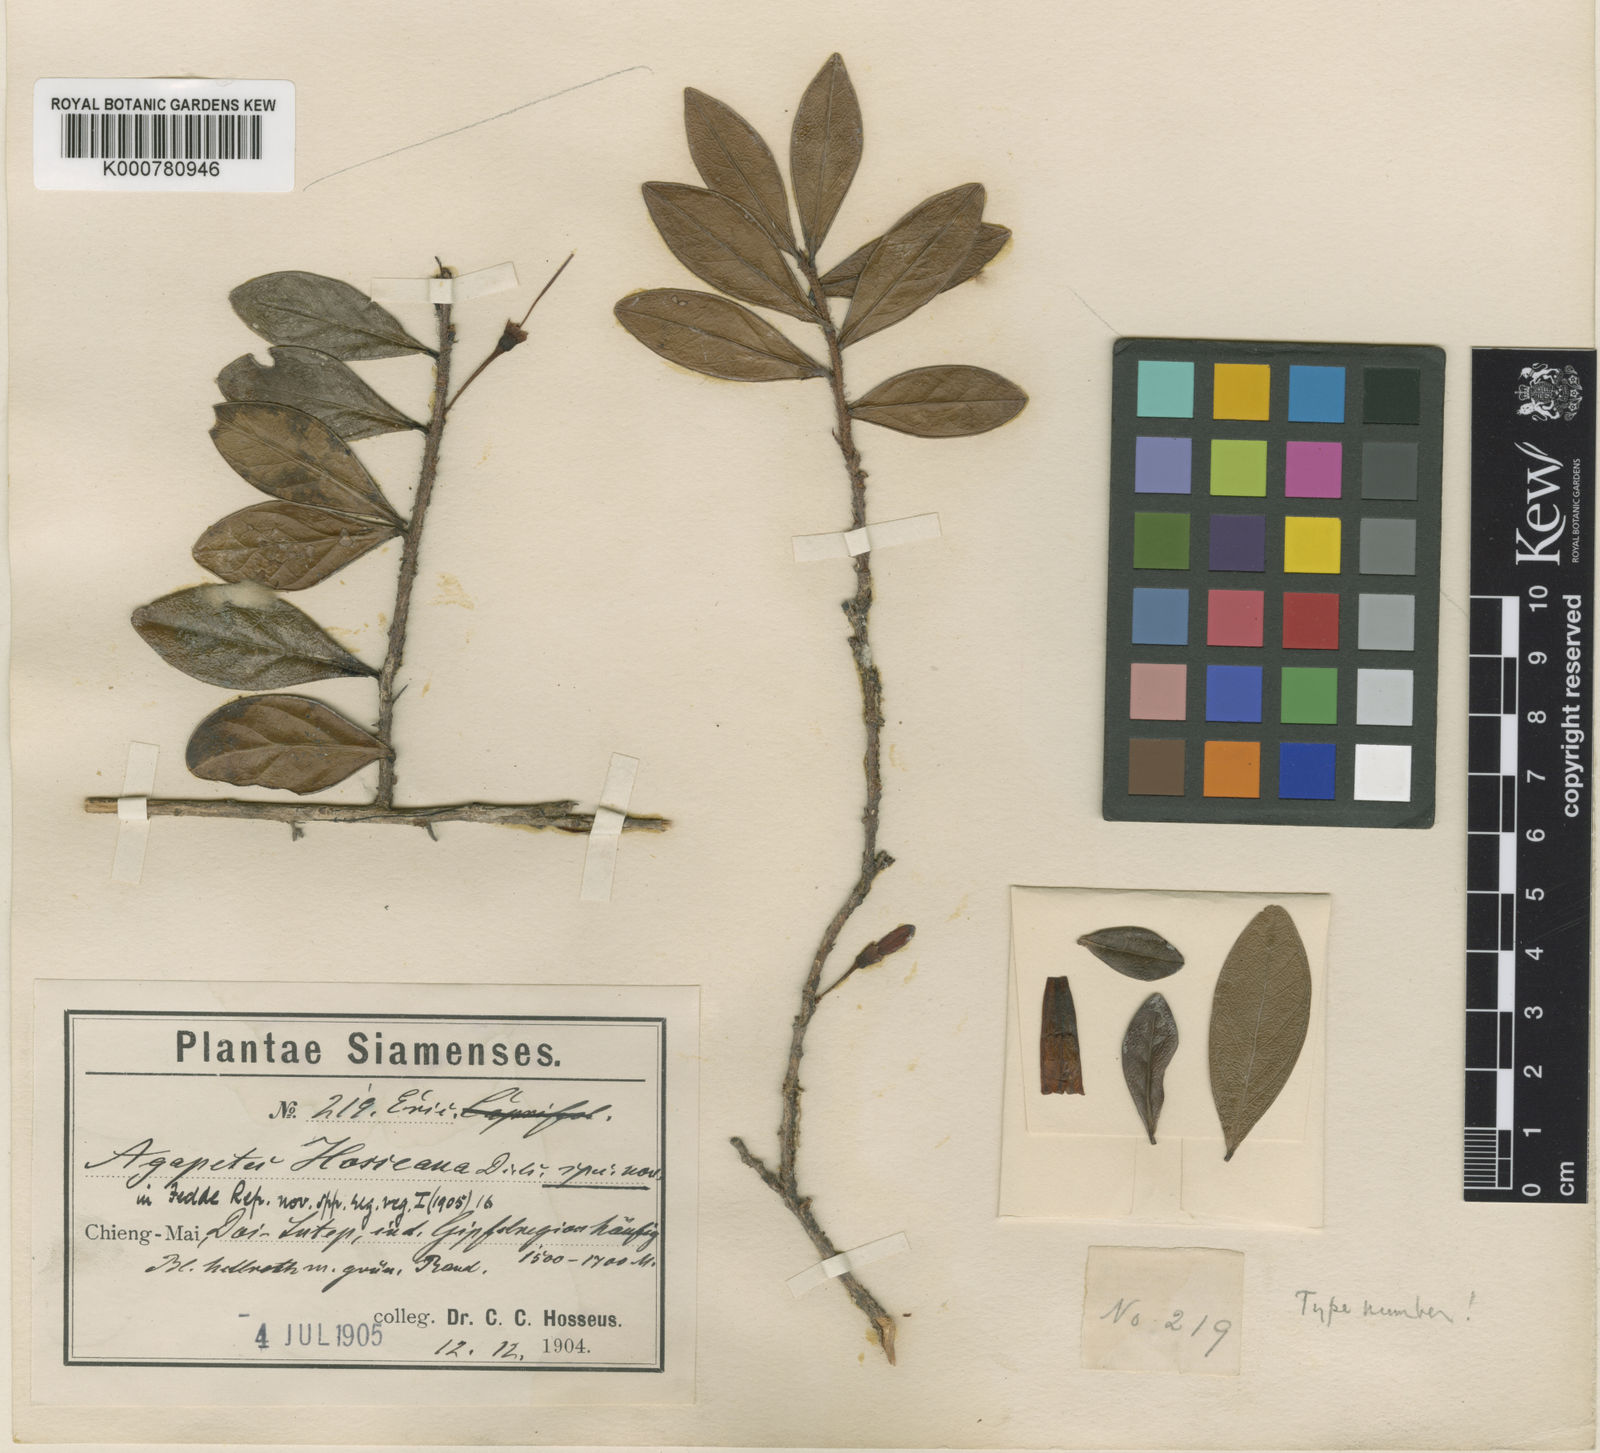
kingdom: Plantae
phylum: Tracheophyta
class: Magnoliopsida
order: Ericales
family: Ericaceae
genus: Agapetes
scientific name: Agapetes hosseana
